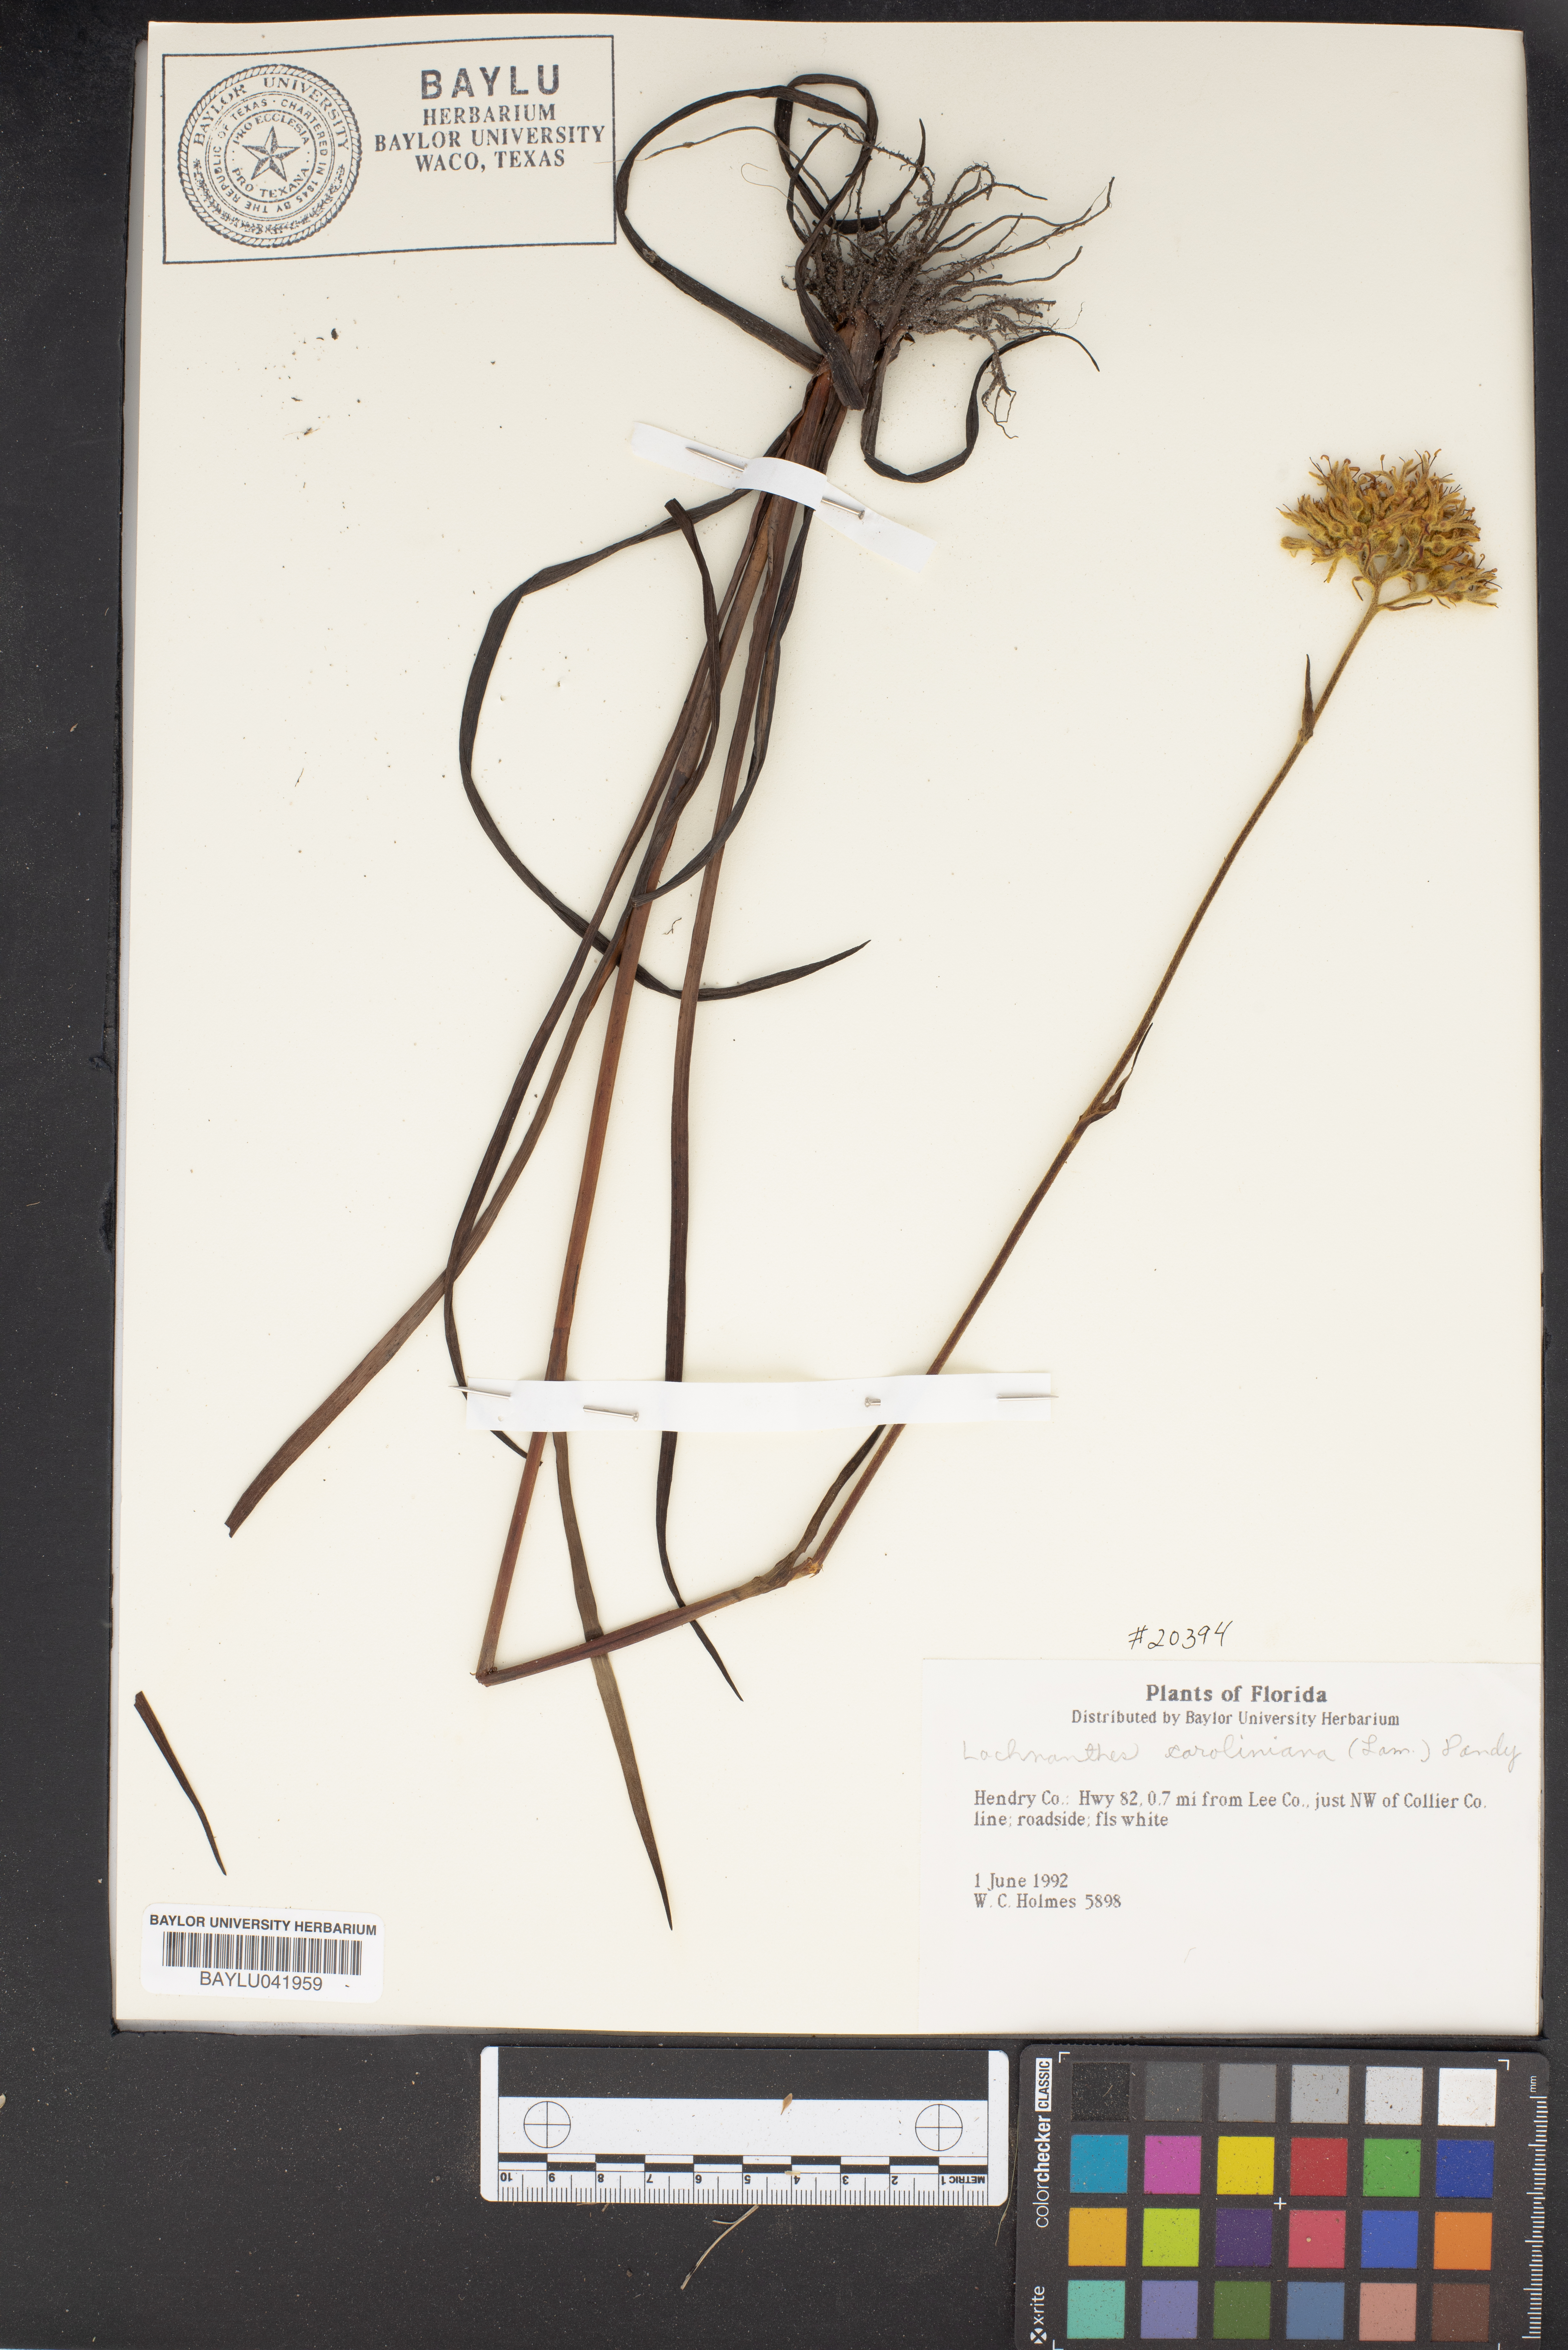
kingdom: Plantae
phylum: Tracheophyta
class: Liliopsida
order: Commelinales
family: Haemodoraceae
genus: Lachnanthes
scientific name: Lachnanthes caroliniana
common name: Carolina redroot
